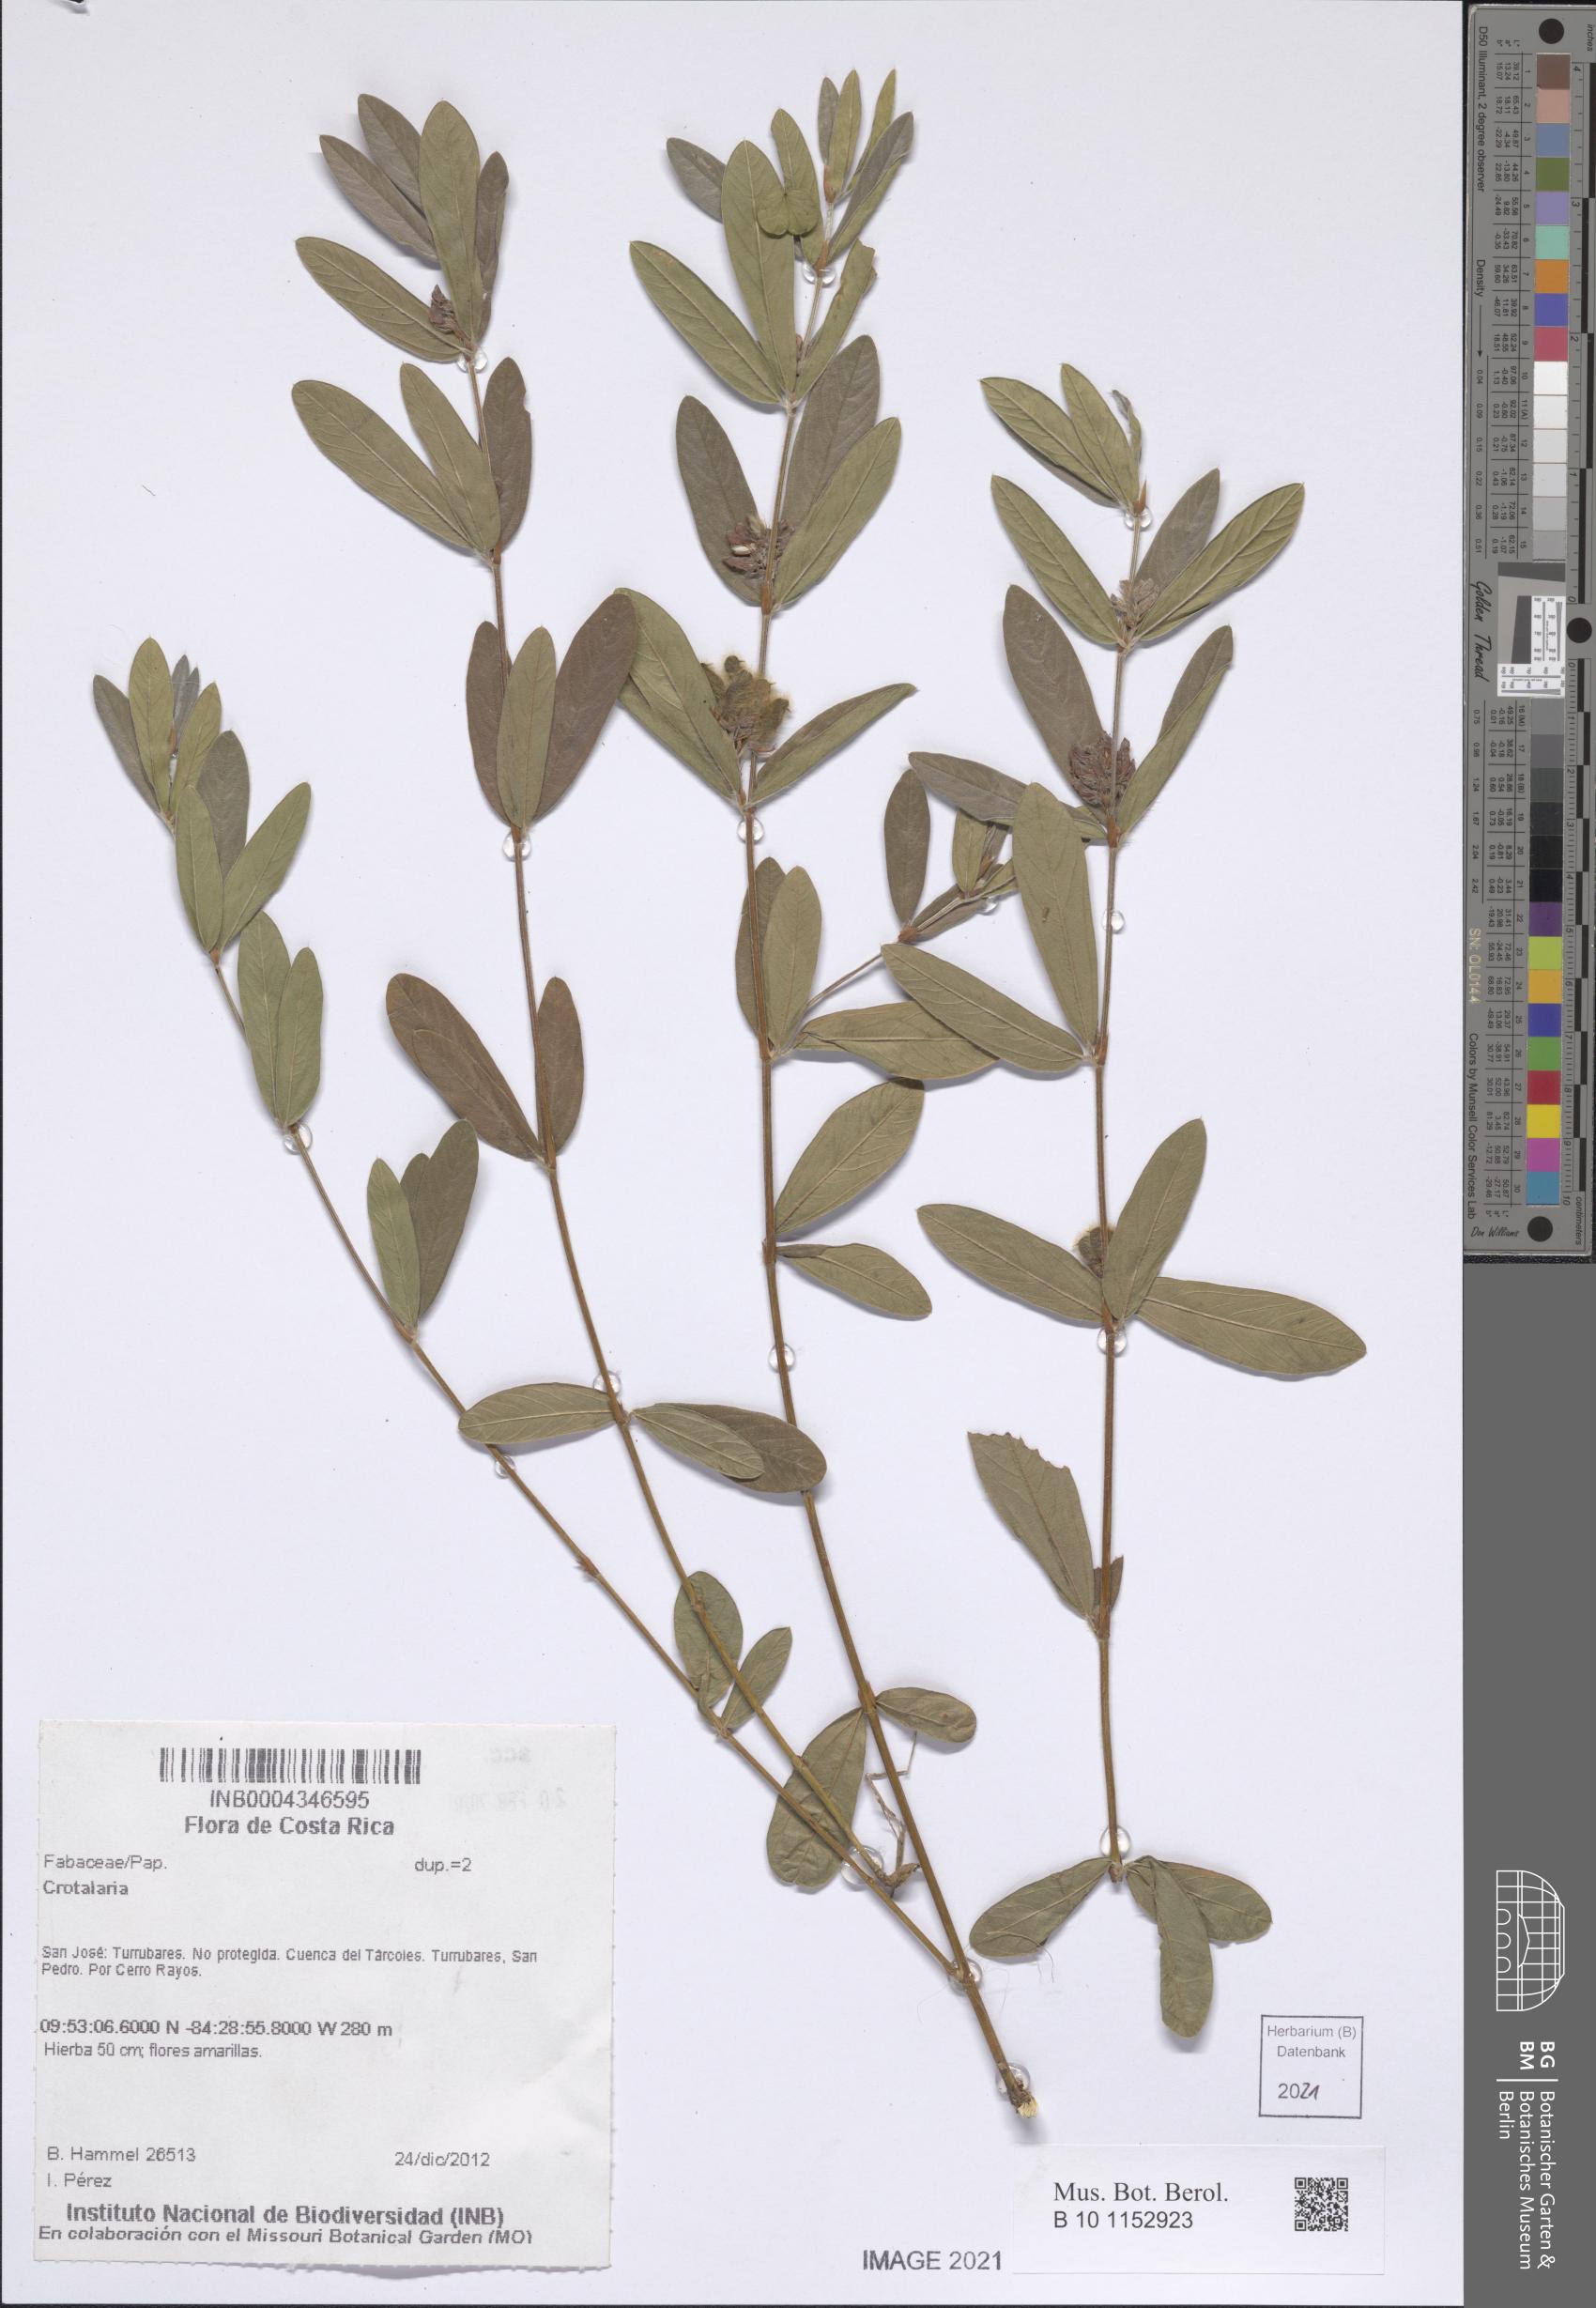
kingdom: Plantae
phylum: Tracheophyta
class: Magnoliopsida
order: Fabales
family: Fabaceae
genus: Eriosema
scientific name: Eriosema diffusum
